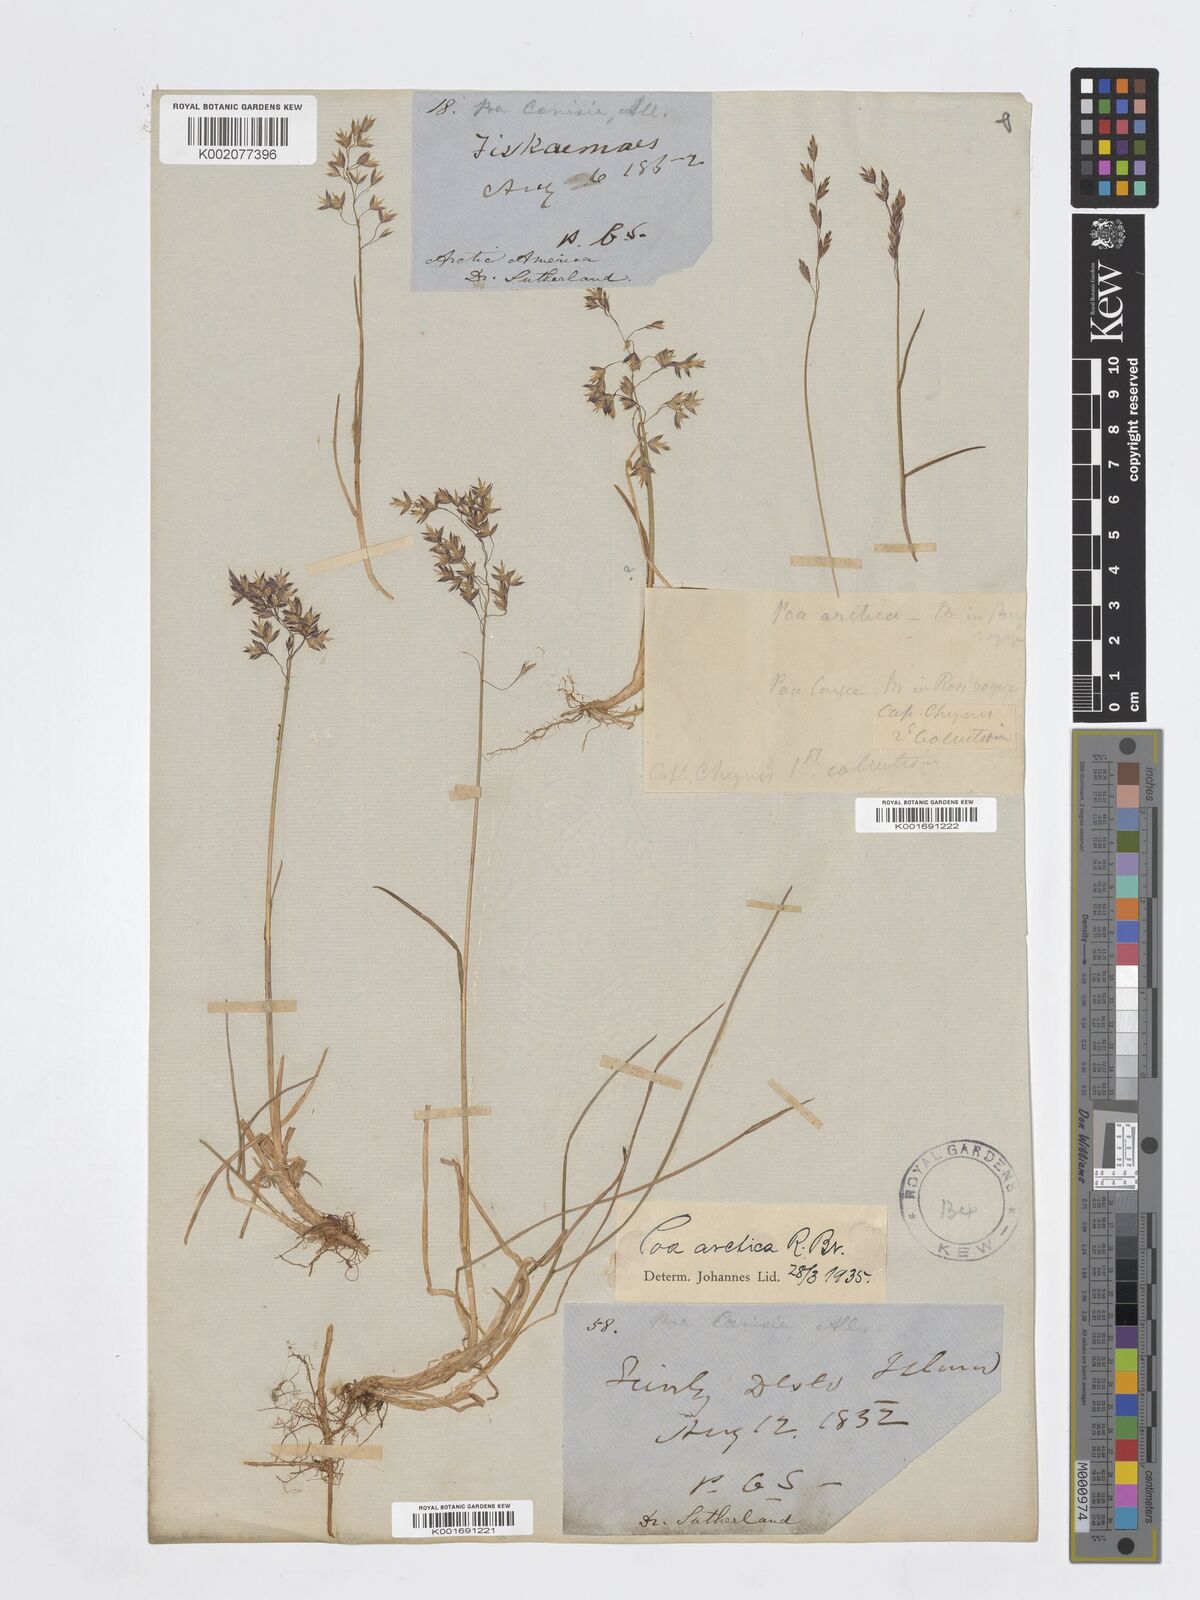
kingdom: Plantae
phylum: Tracheophyta
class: Liliopsida
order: Poales
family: Poaceae
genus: Poa
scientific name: Poa arctica
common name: Arctic bluegrass
